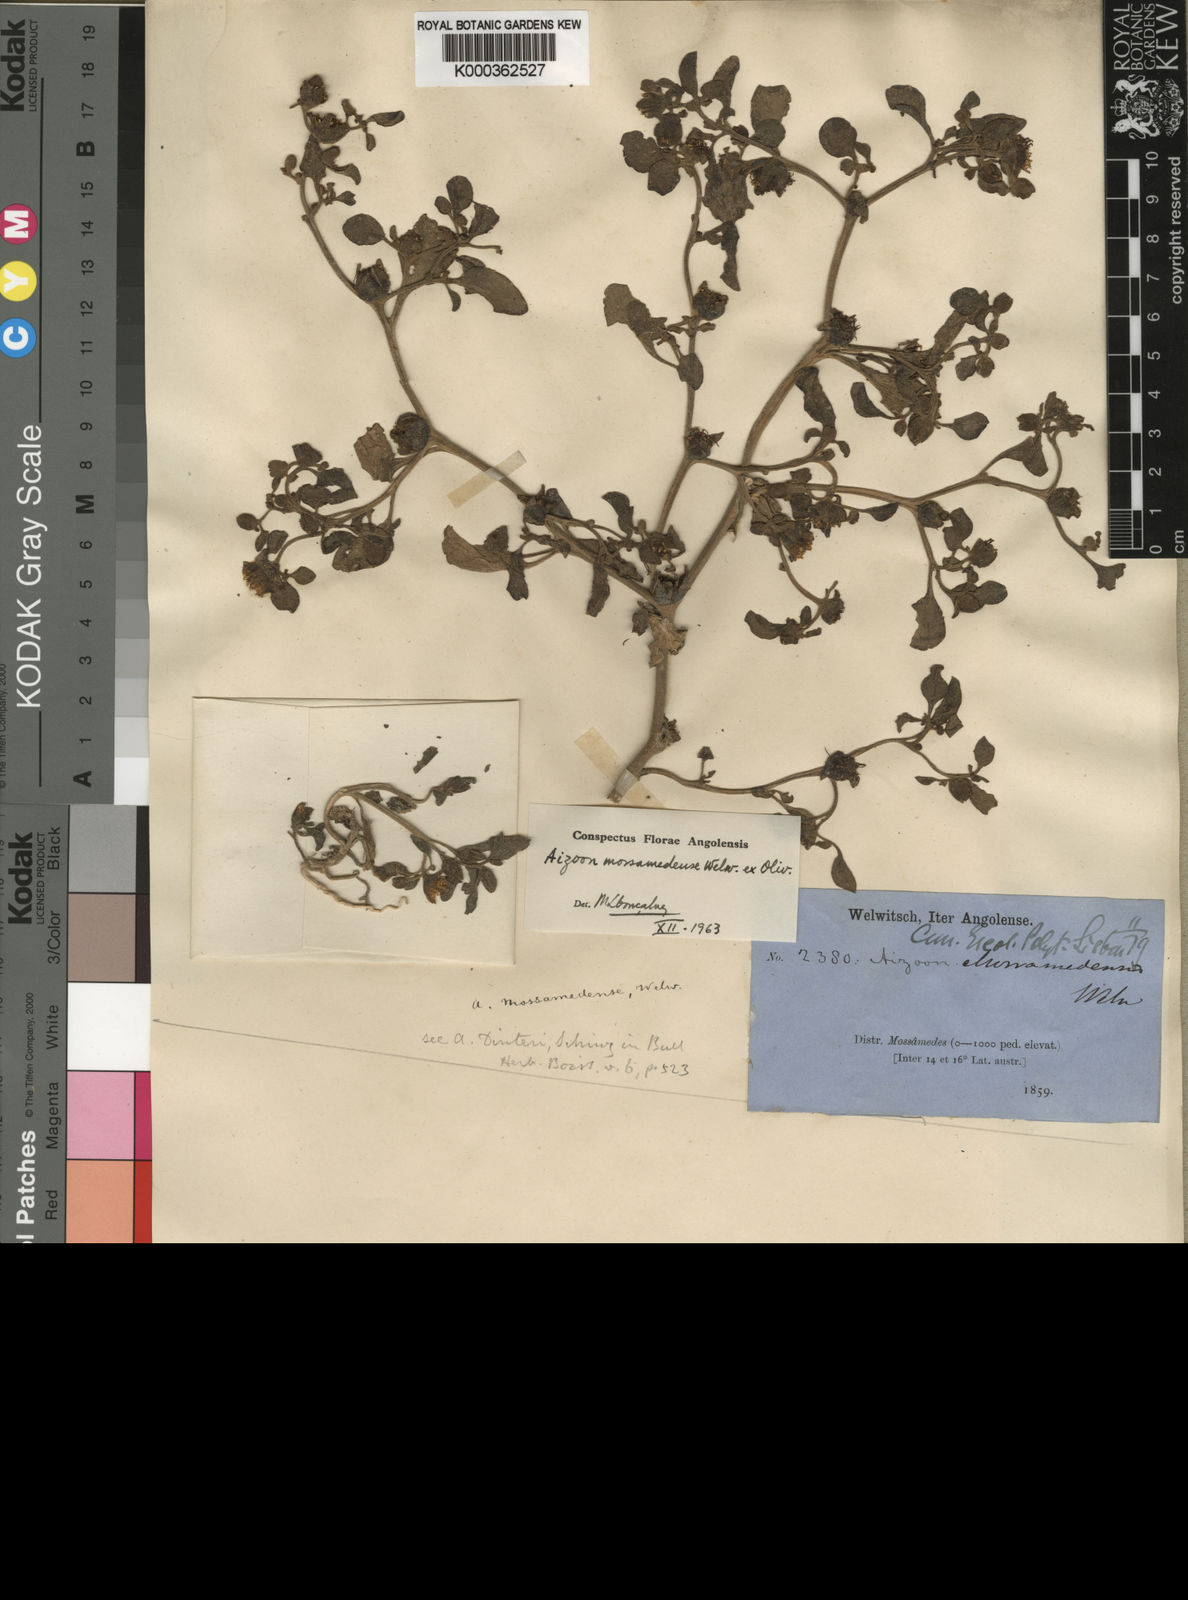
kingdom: Plantae
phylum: Tracheophyta
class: Magnoliopsida
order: Caryophyllales
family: Aizoaceae
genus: Aizoanthemum
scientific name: Aizoanthemum mossamedense
